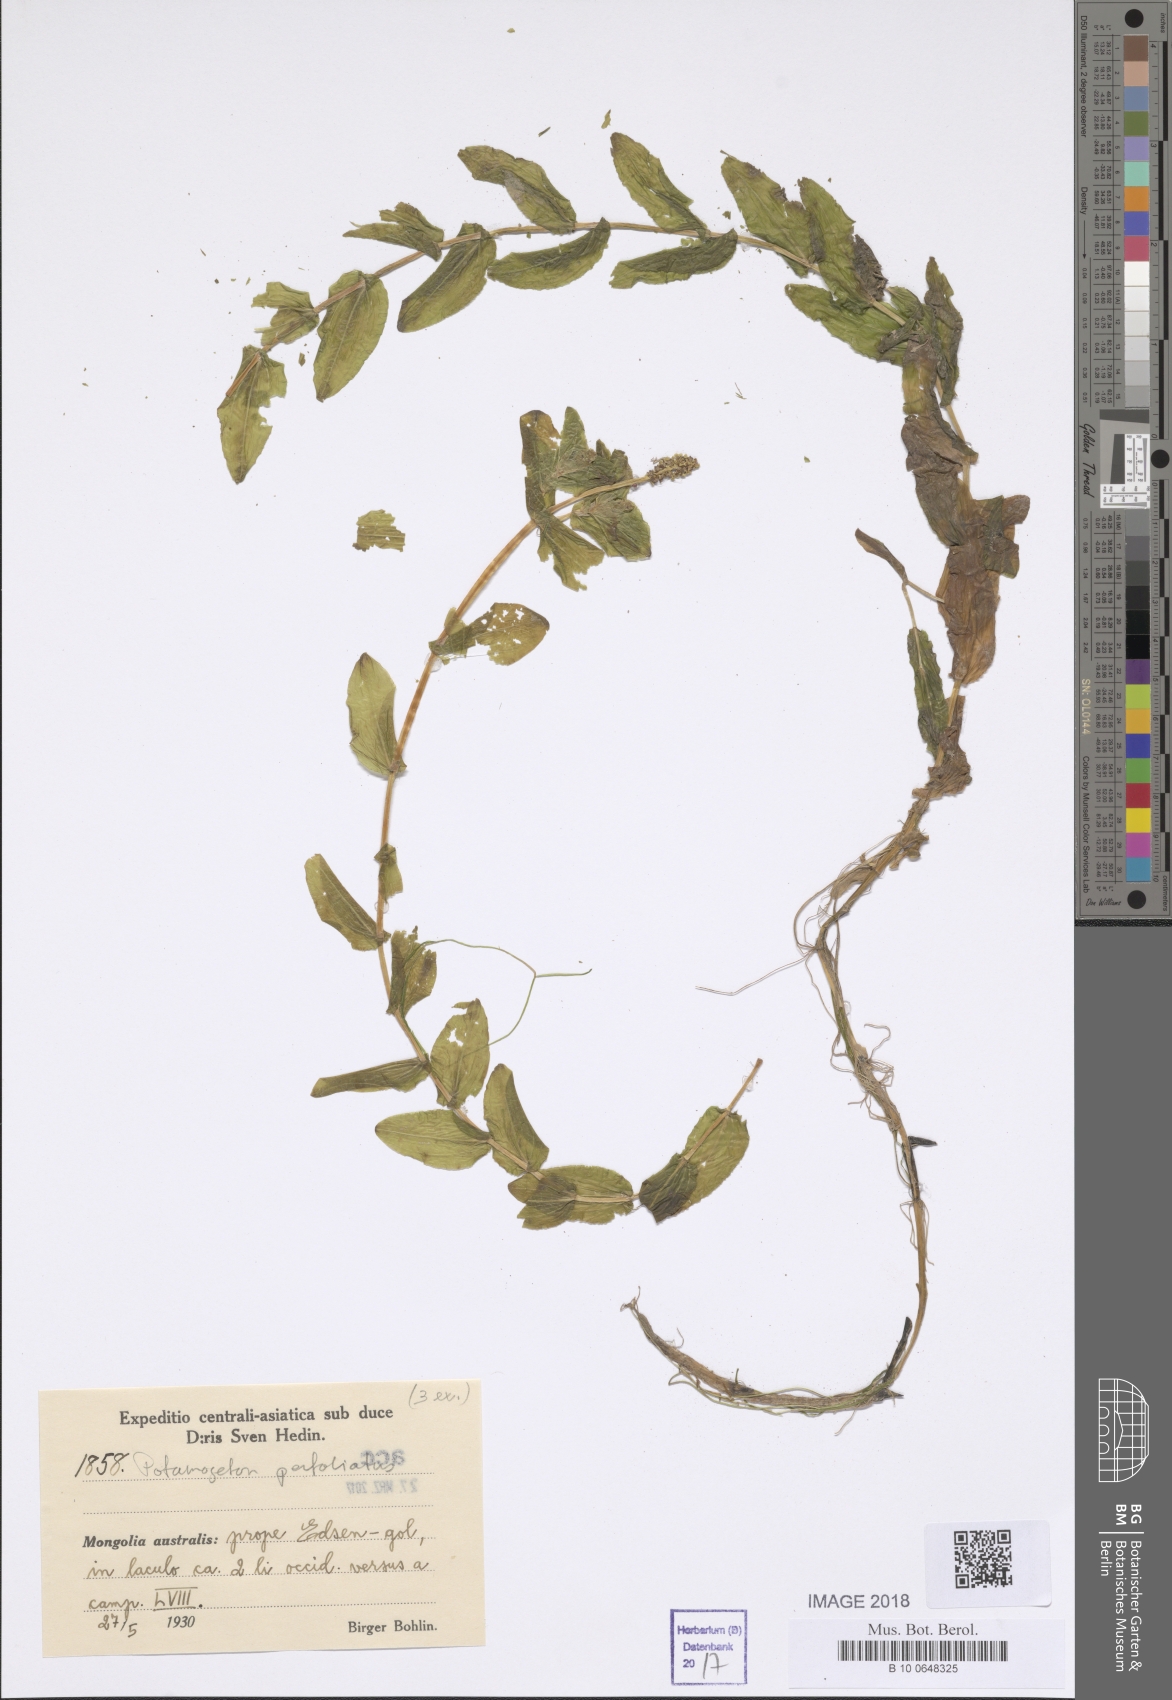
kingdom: Plantae
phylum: Tracheophyta
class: Liliopsida
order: Alismatales
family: Potamogetonaceae
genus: Potamogeton
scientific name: Potamogeton perfoliatus
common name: Perfoliate pondweed
